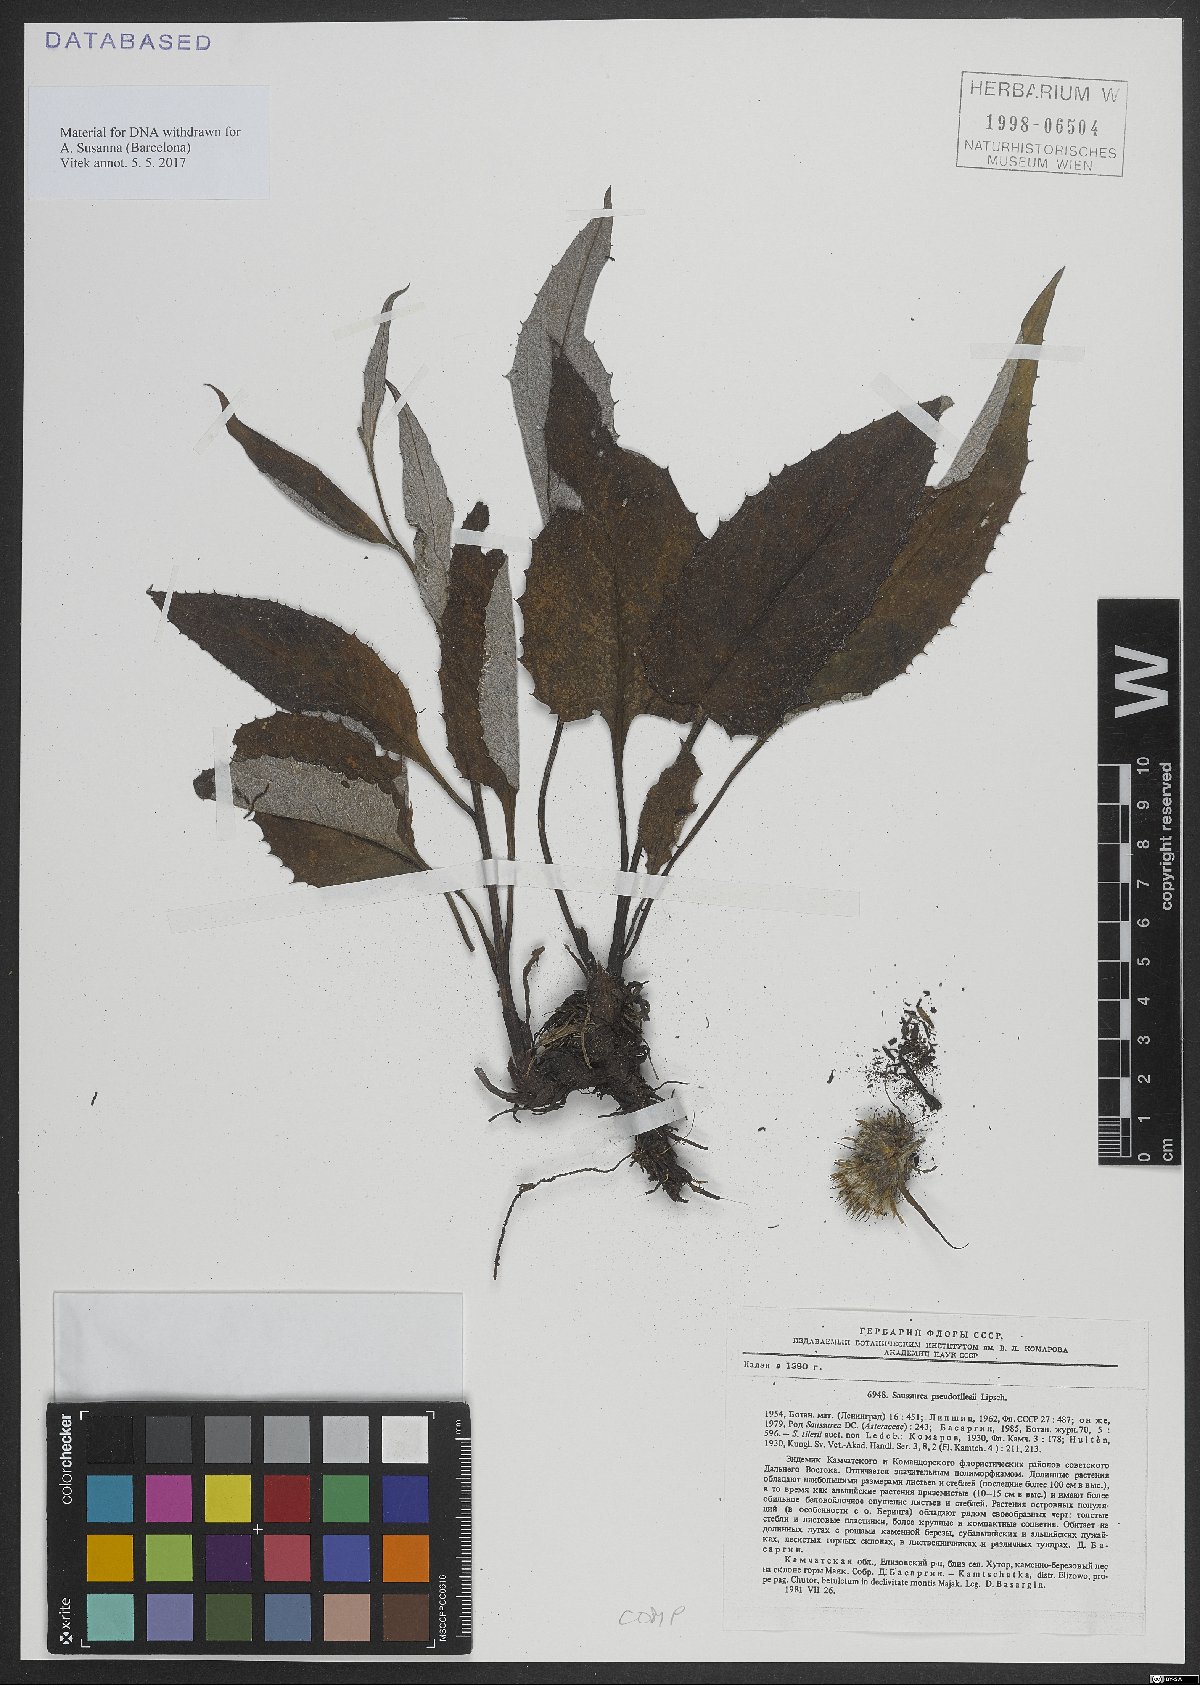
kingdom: Plantae
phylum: Tracheophyta
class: Magnoliopsida
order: Asterales
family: Asteraceae
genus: Saussurea
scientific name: Saussurea pseudotilesii
